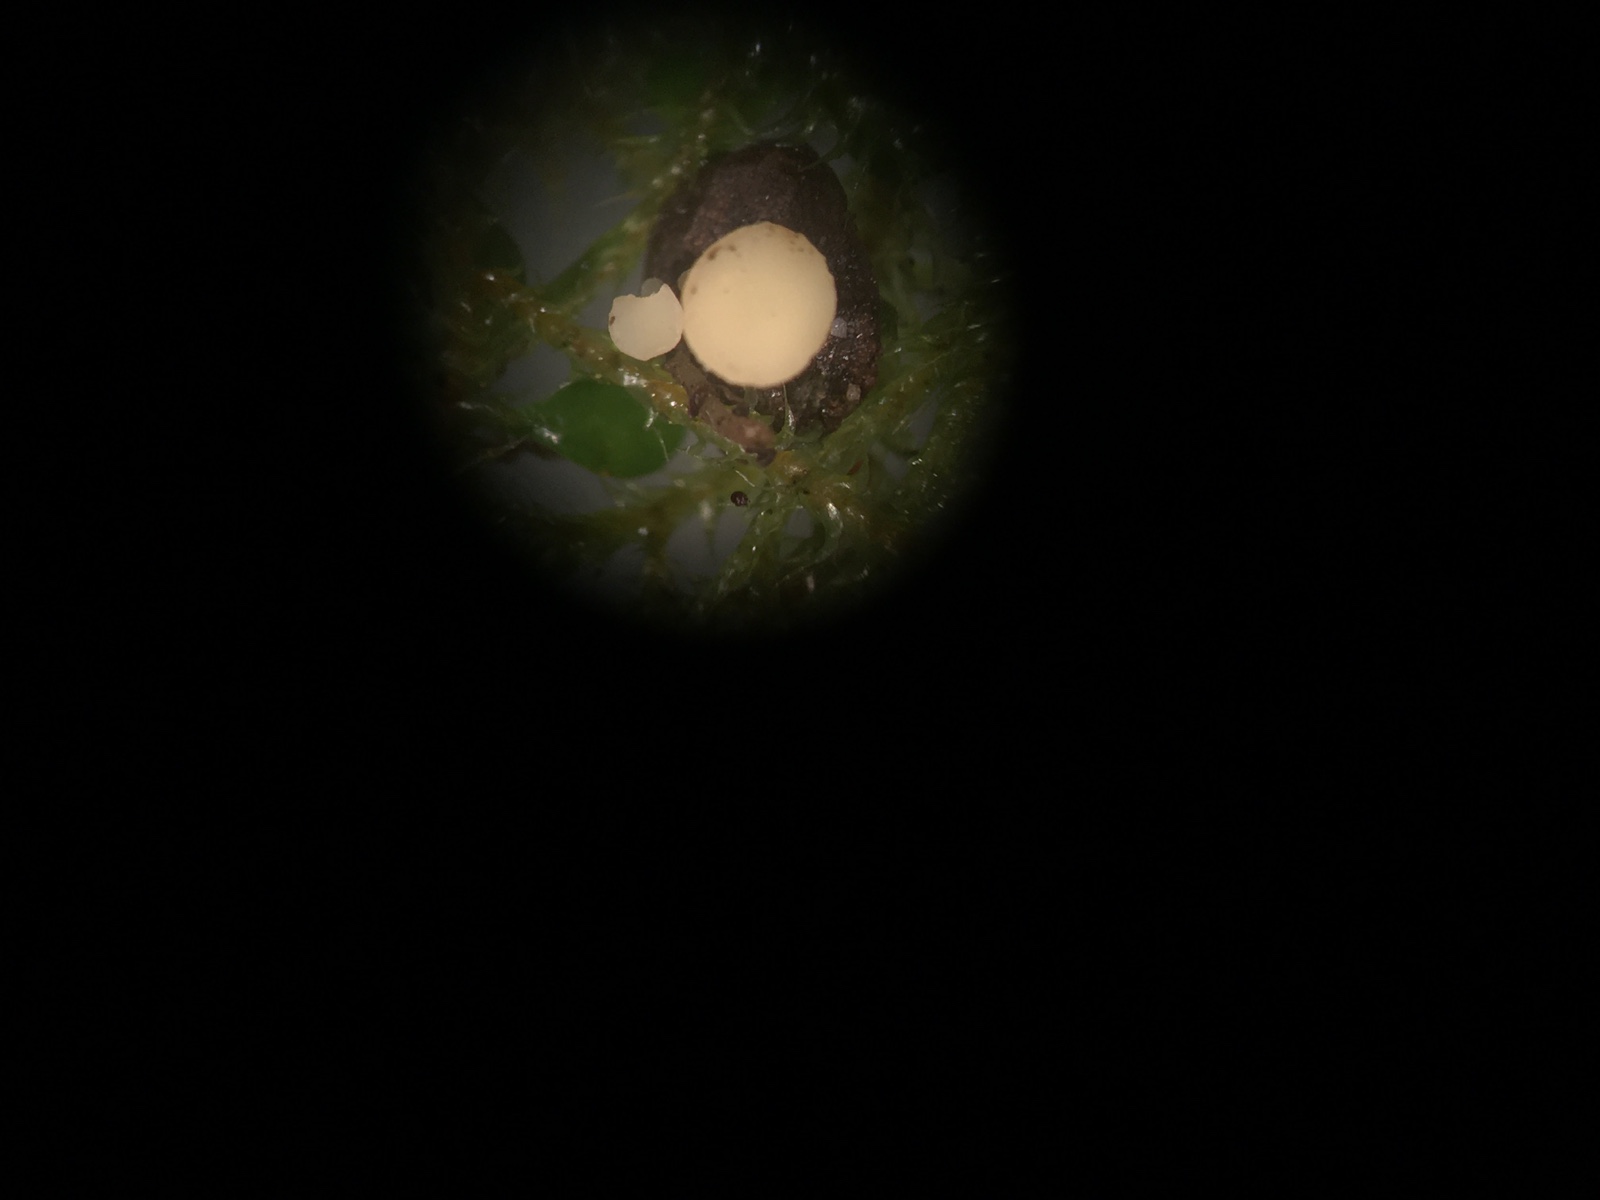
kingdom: Fungi
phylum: Ascomycota
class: Leotiomycetes
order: Helotiales
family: Helotiaceae
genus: Hymenoscyphus
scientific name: Hymenoscyphus scutula
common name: almindelig stilkskive
